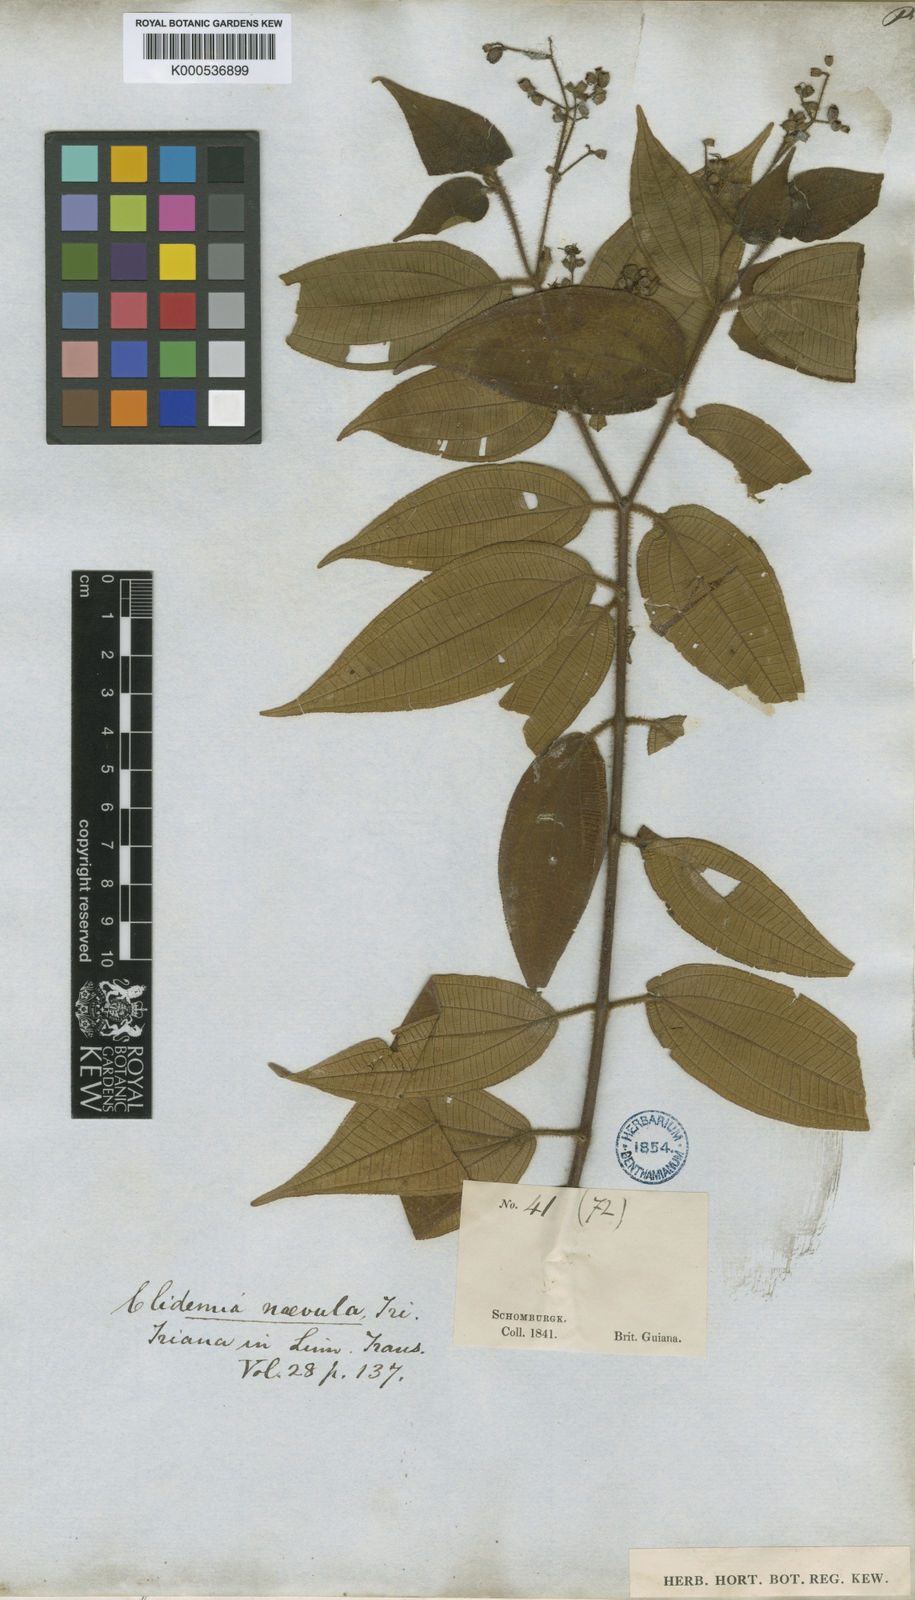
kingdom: Plantae
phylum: Tracheophyta
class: Magnoliopsida
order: Myrtales
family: Melastomataceae
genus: Miconia
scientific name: Miconia heteroclita
